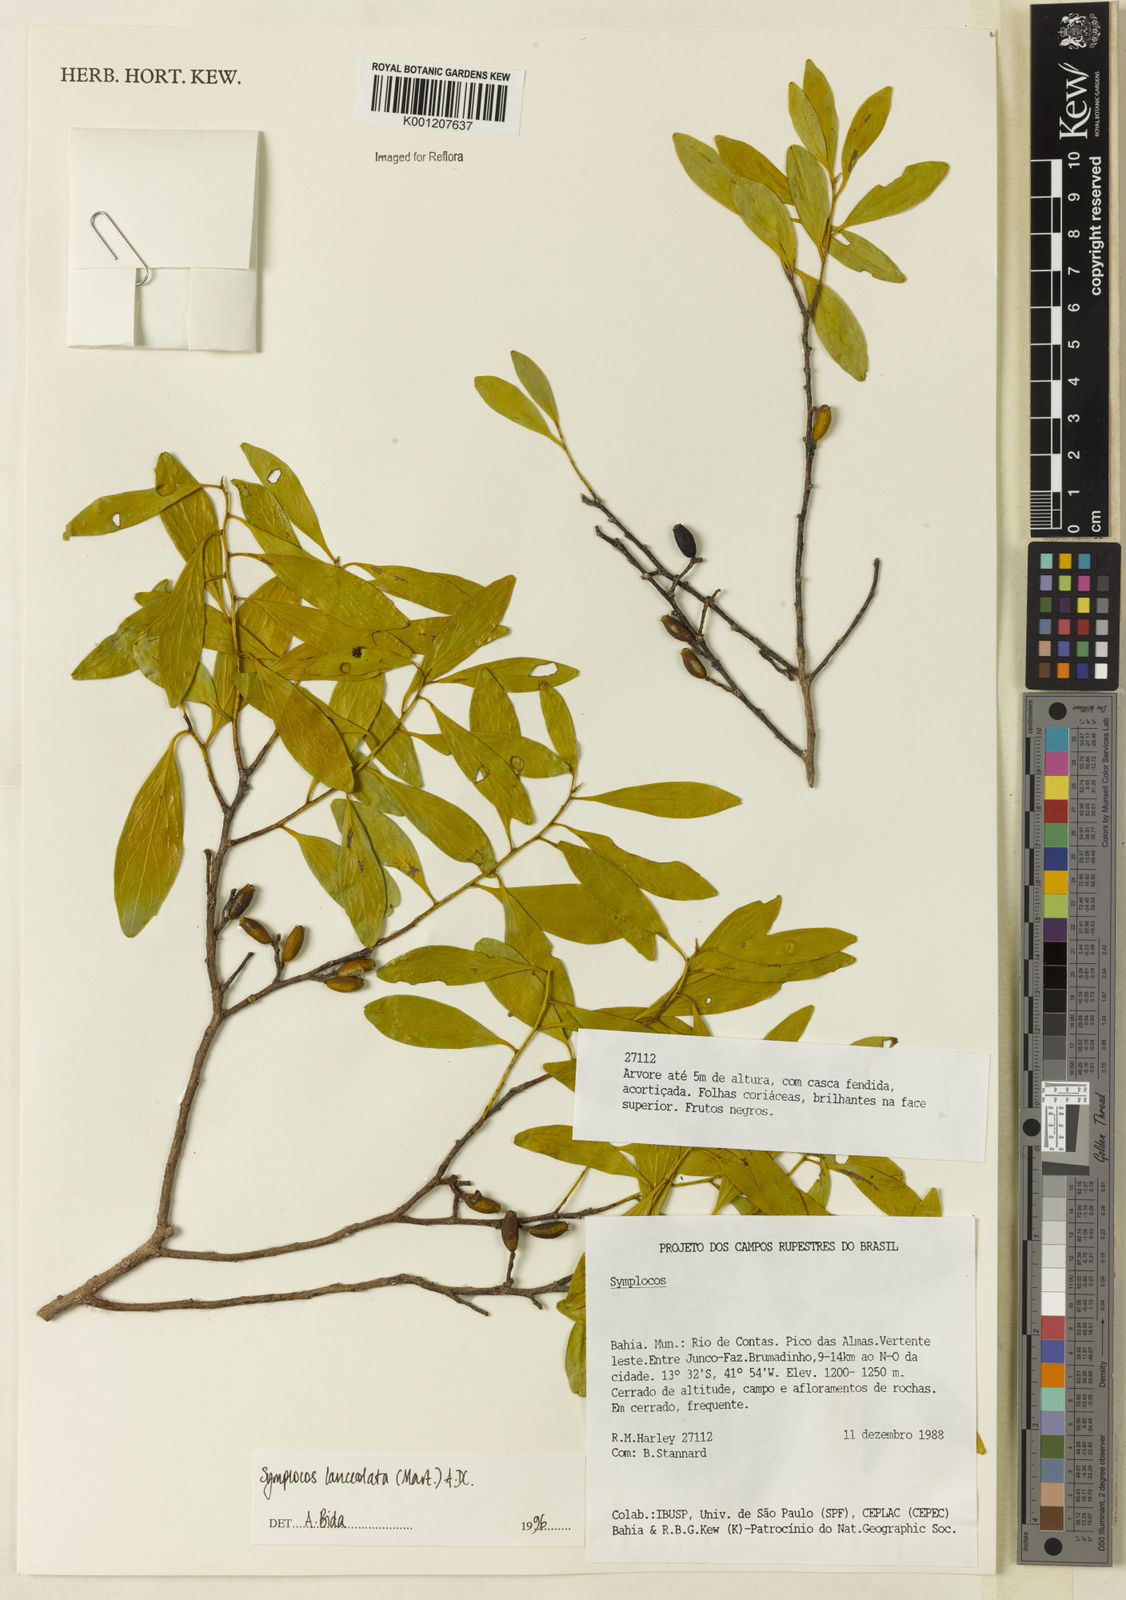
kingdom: Plantae
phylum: Tracheophyta
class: Magnoliopsida
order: Ericales
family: Symplocaceae
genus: Symplocos
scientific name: Symplocos oblongifolia
